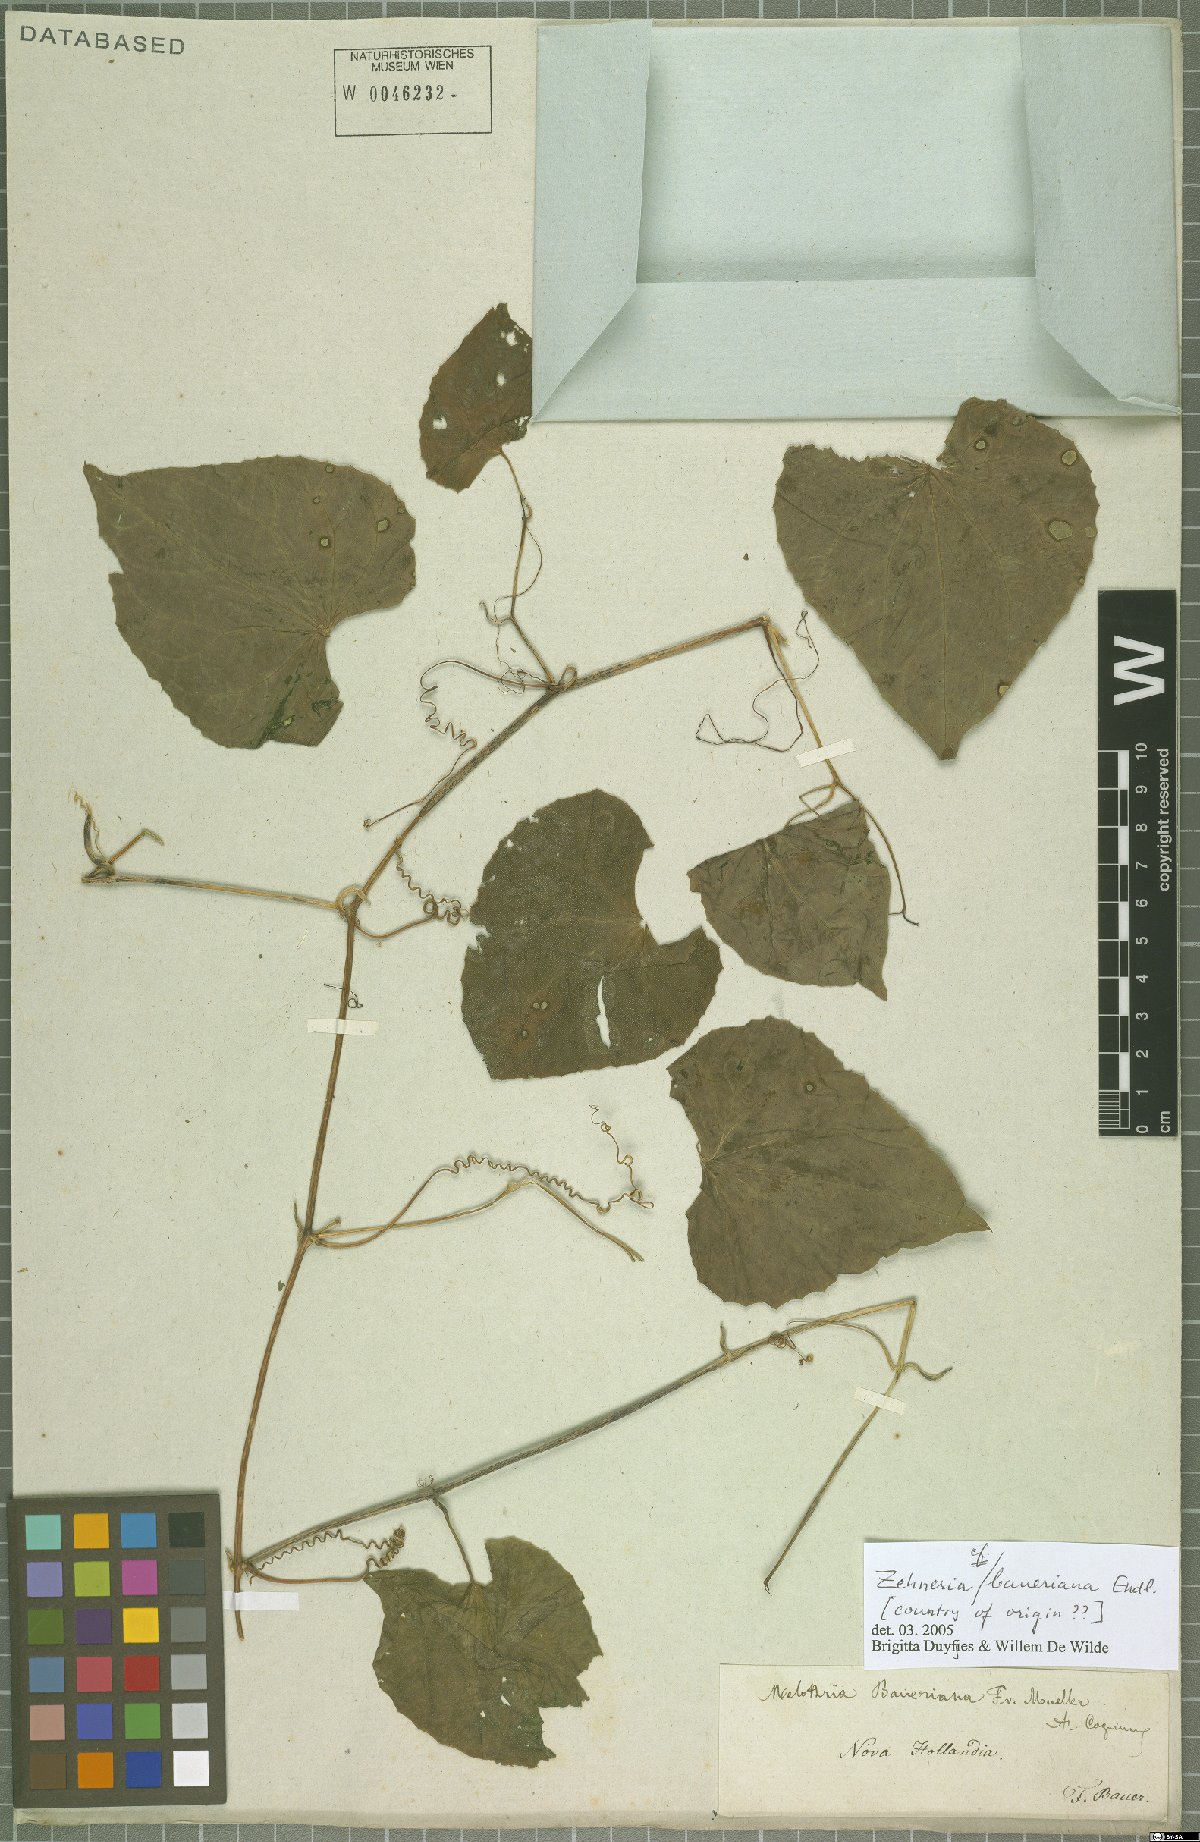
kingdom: Plantae
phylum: Tracheophyta
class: Magnoliopsida
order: Cucurbitales
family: Cucurbitaceae
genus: Zehneria
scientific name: Zehneria mucronata
